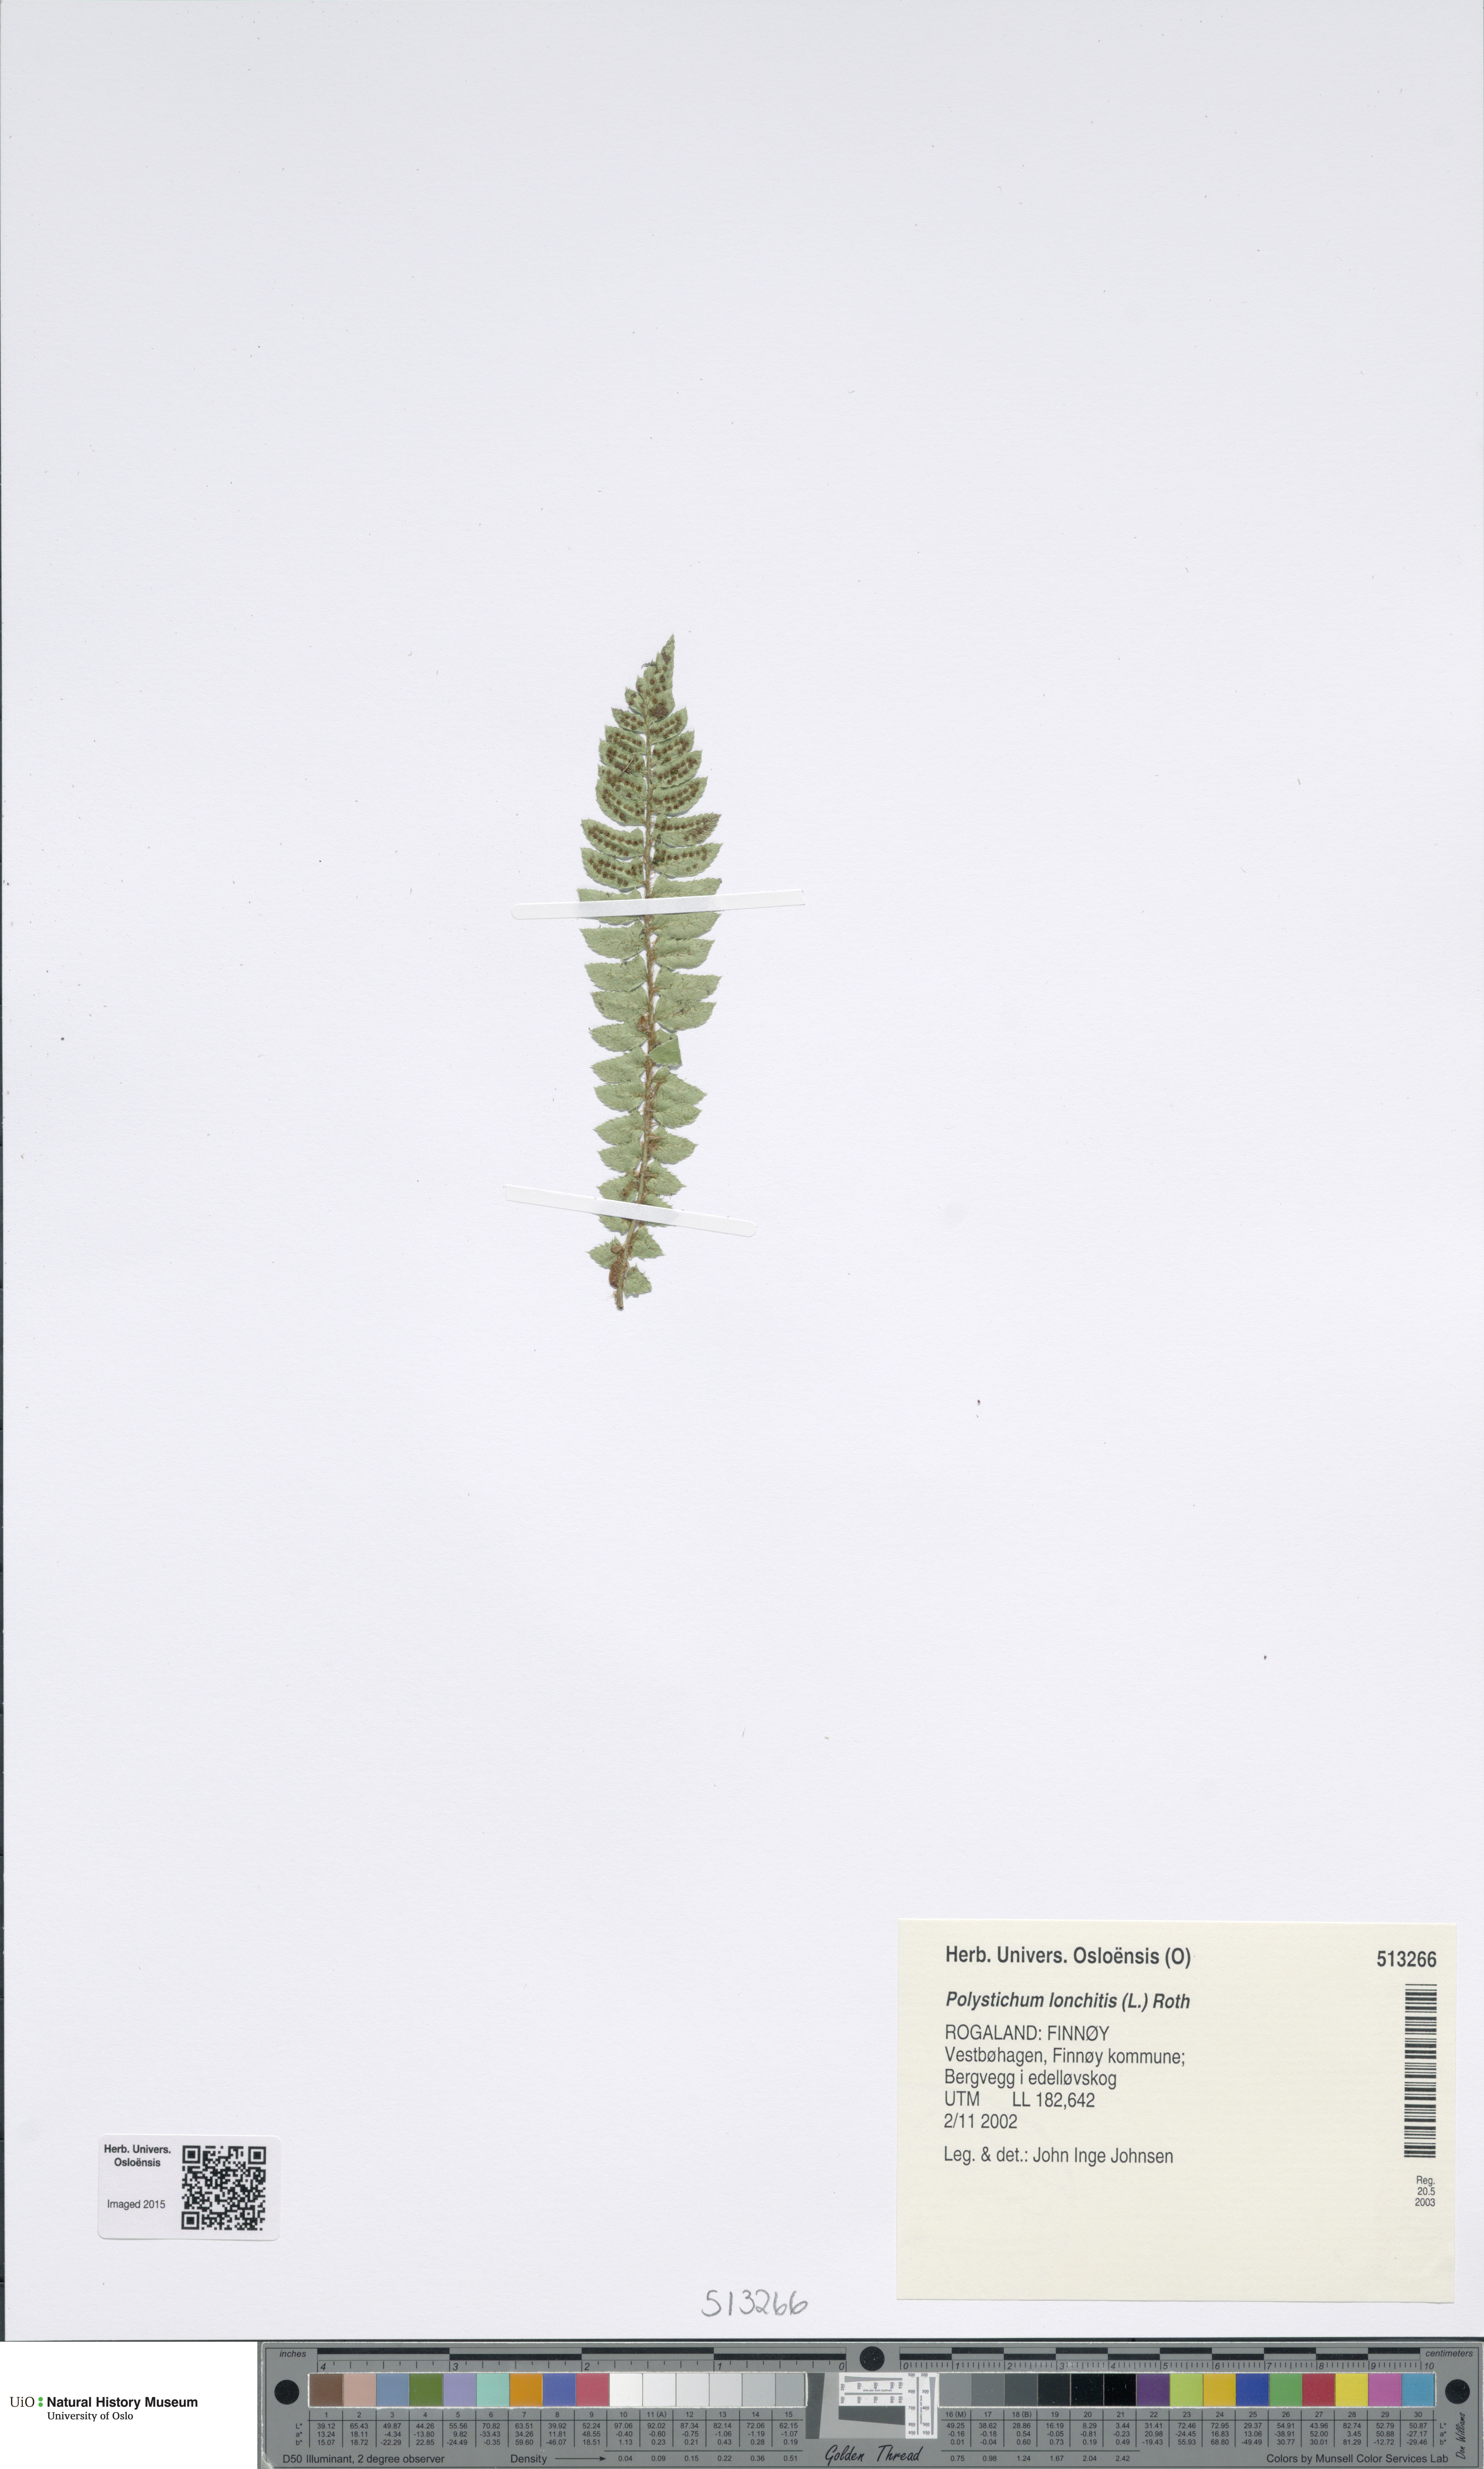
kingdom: Plantae
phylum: Tracheophyta
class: Polypodiopsida
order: Polypodiales
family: Dryopteridaceae
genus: Polystichum
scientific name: Polystichum lonchitis
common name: Holly fern
